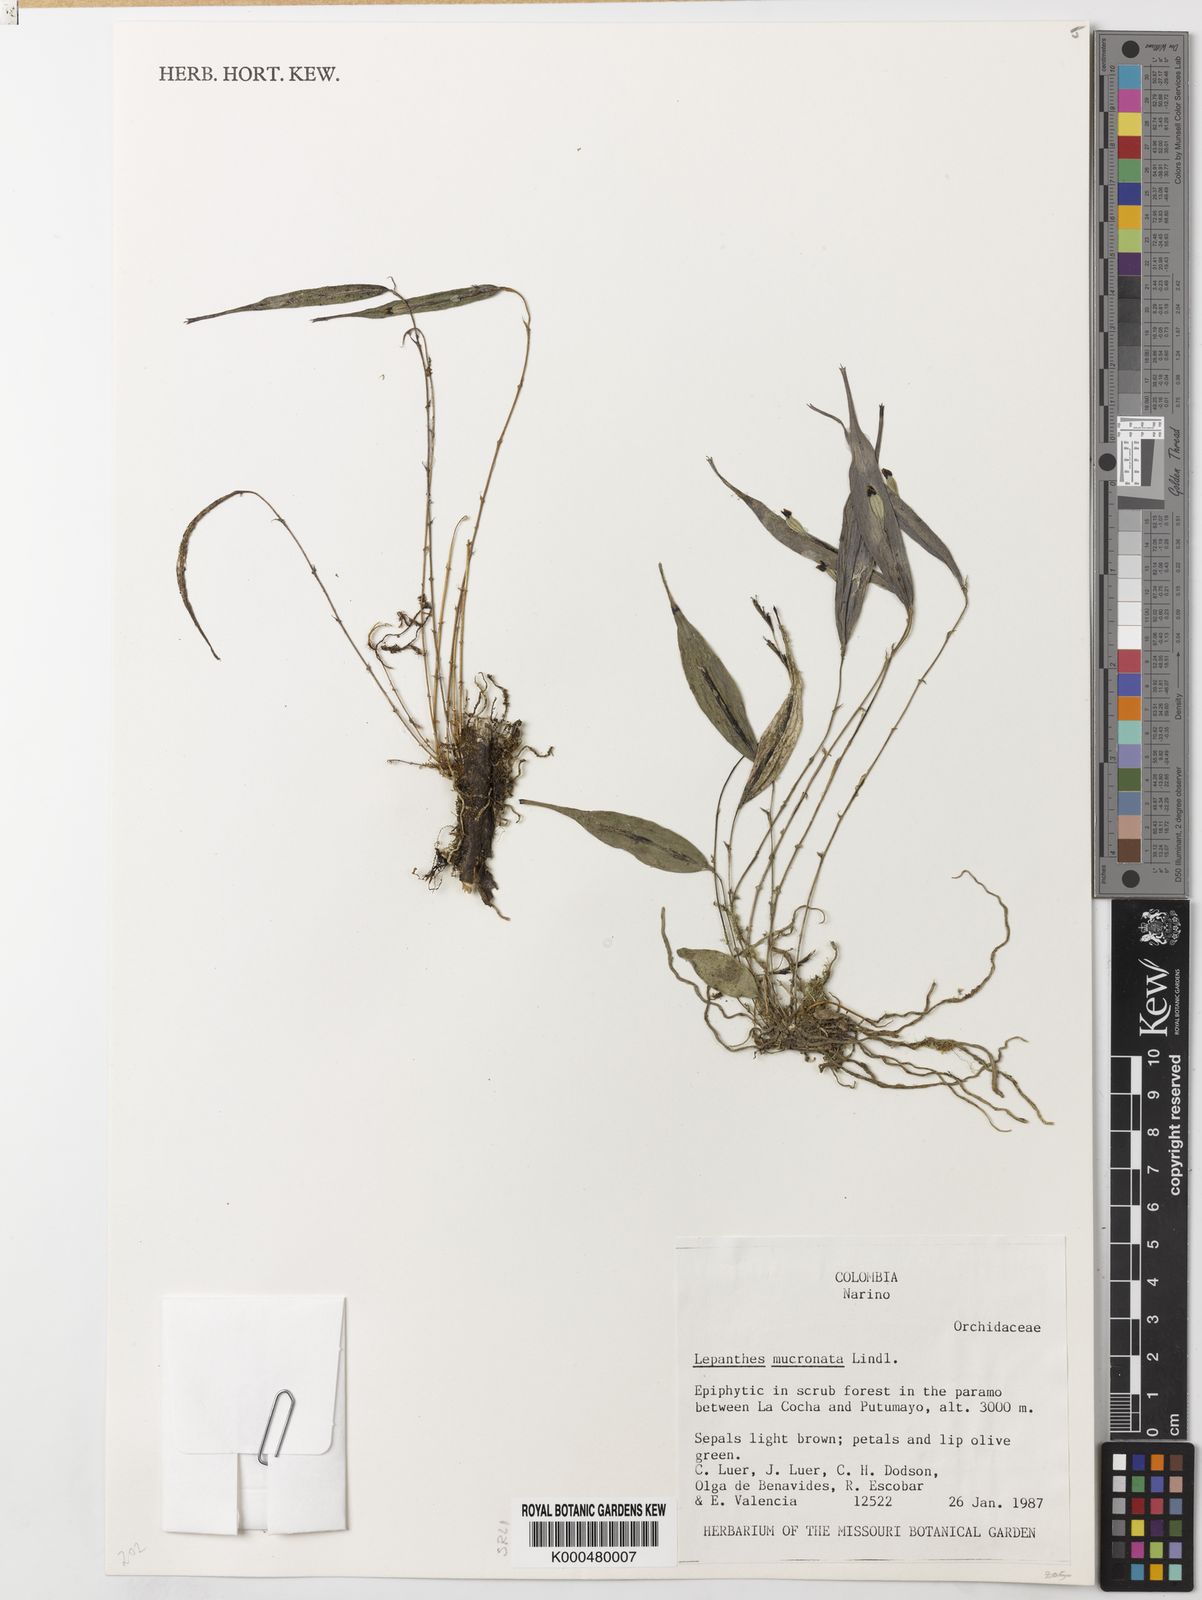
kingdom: Plantae
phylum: Tracheophyta
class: Liliopsida
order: Asparagales
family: Orchidaceae
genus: Lepanthes
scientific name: Lepanthes mucronata
